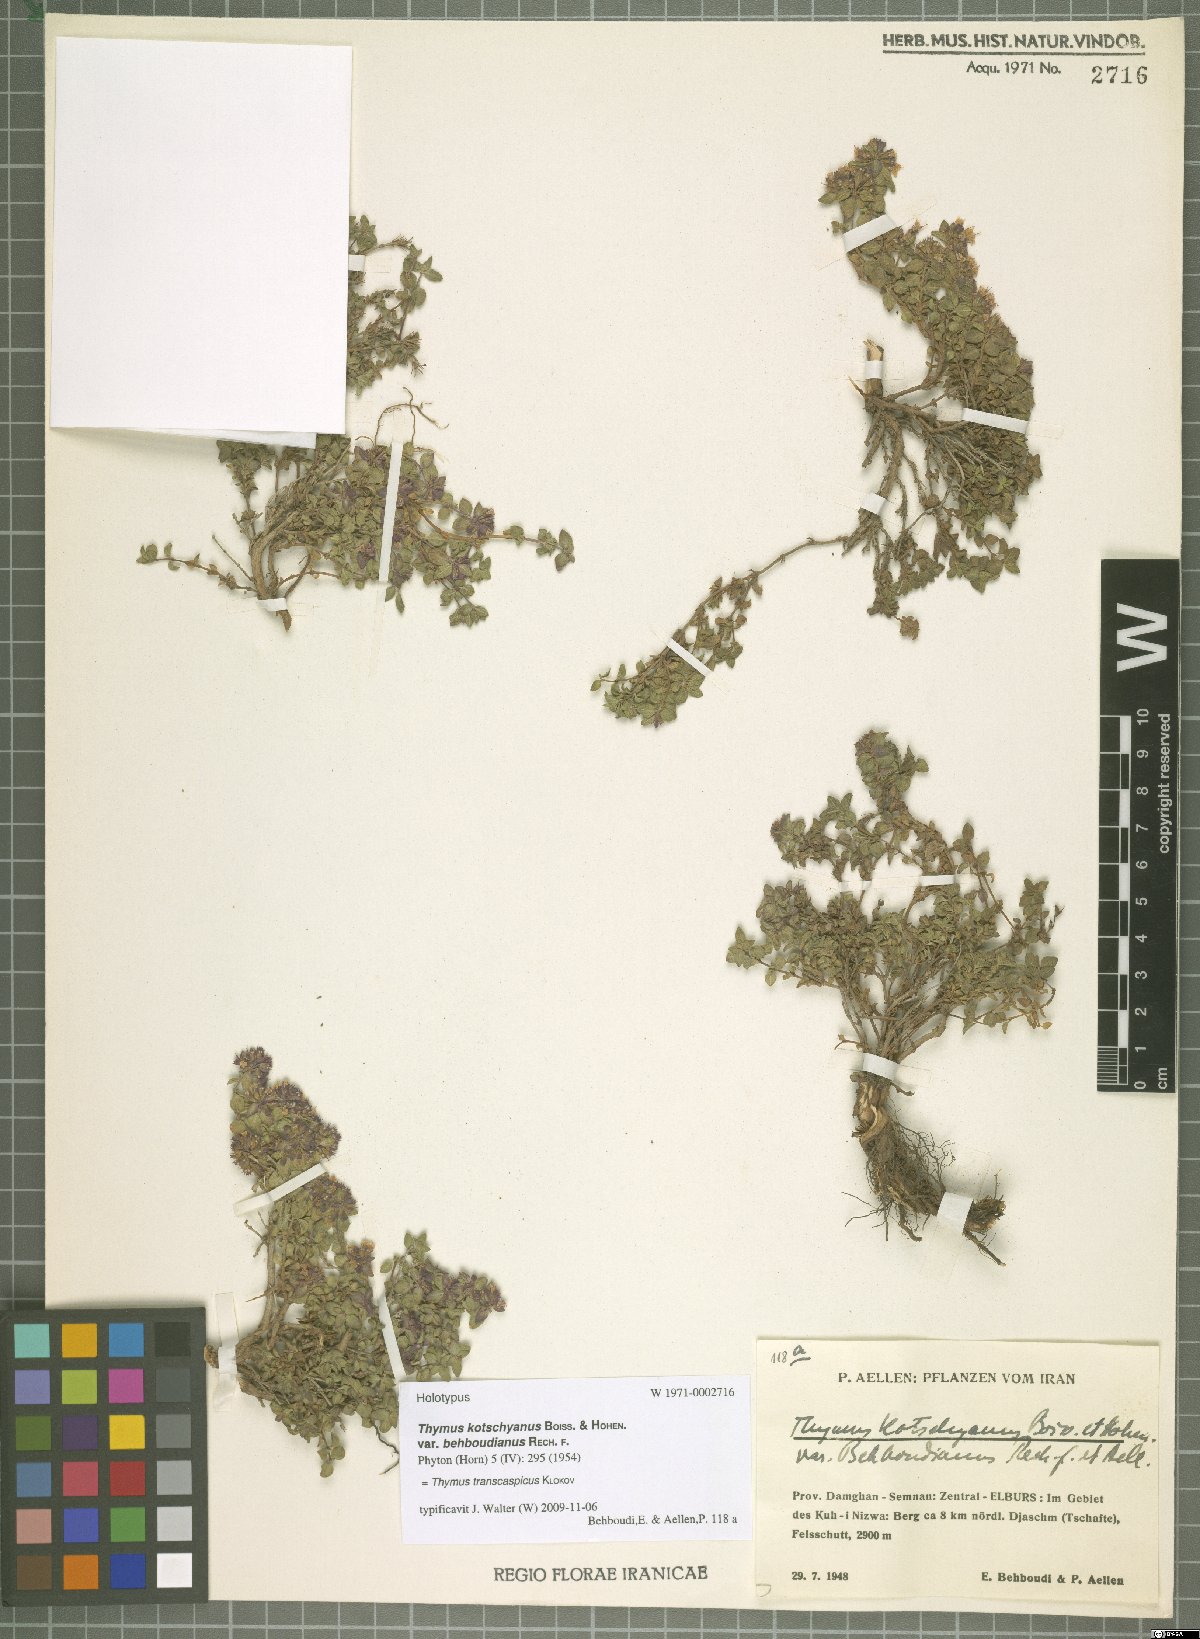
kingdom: Plantae
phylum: Tracheophyta
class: Magnoliopsida
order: Lamiales
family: Lamiaceae
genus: Thymus
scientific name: Thymus transcaspicus
